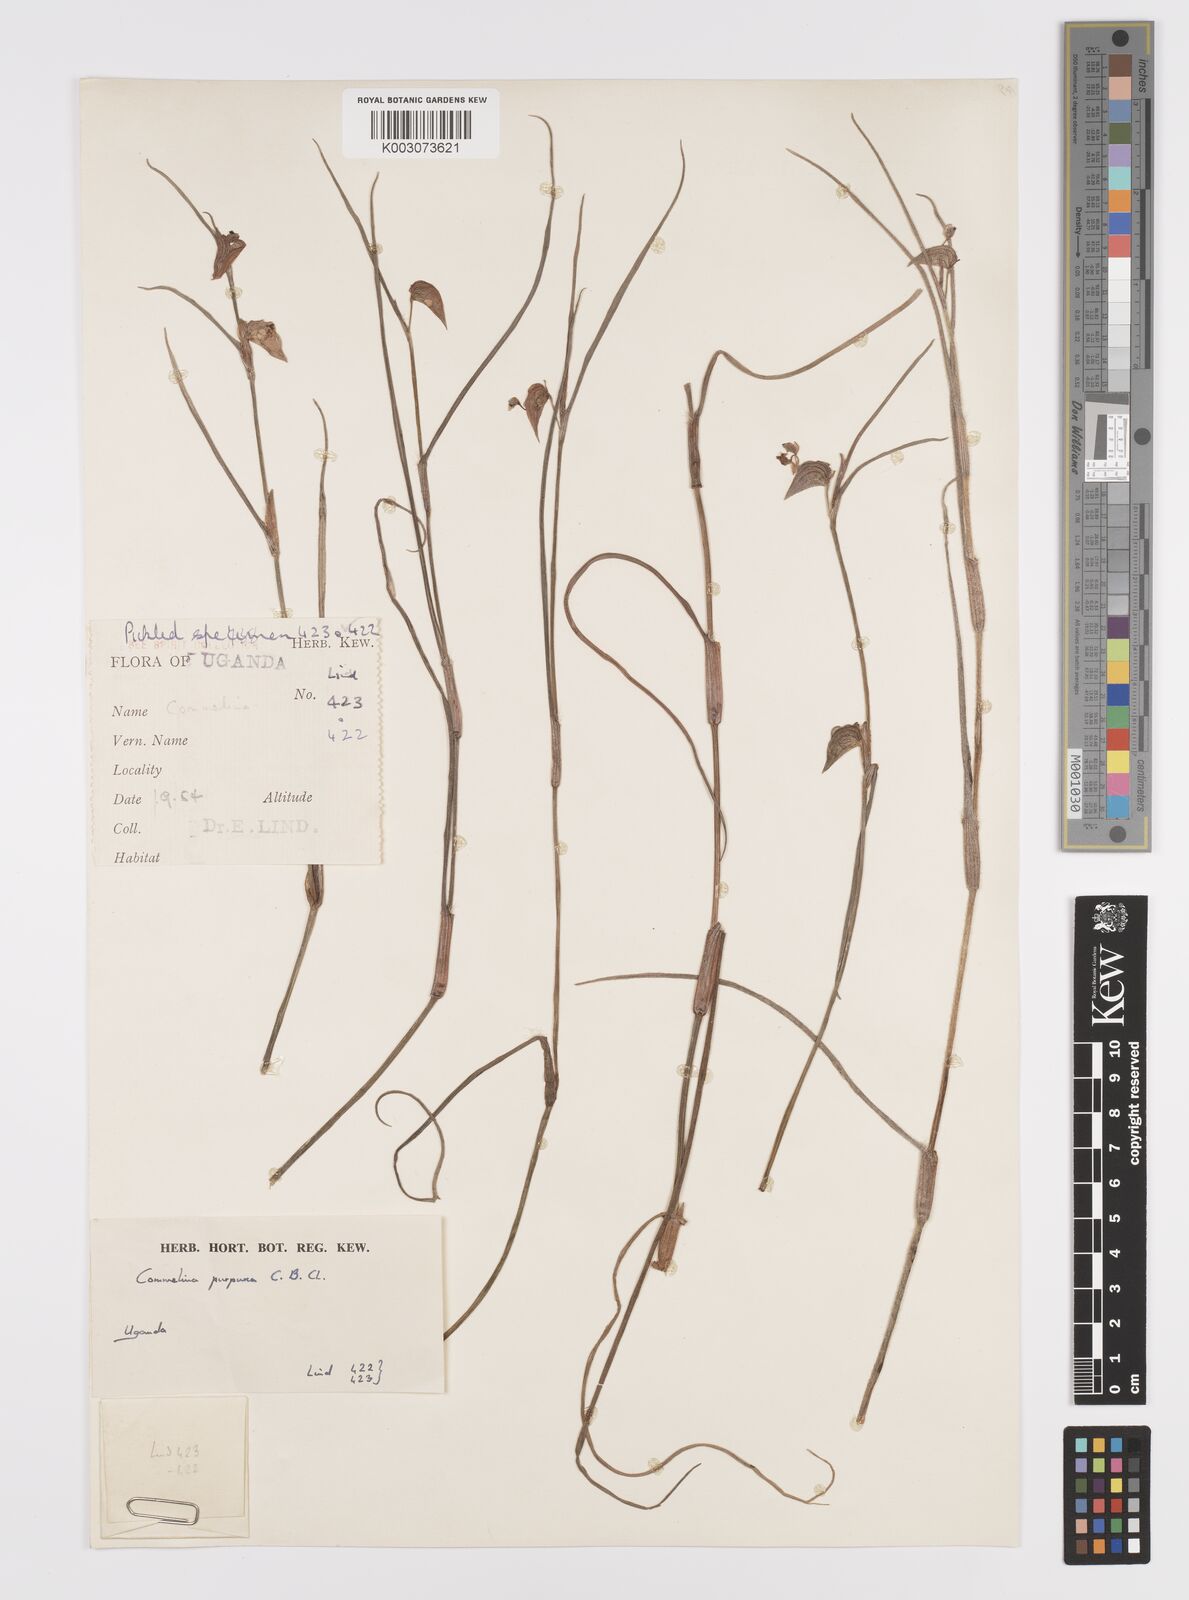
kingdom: Plantae
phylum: Tracheophyta
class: Liliopsida
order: Commelinales
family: Commelinaceae
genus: Commelina
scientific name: Commelina purpurea
